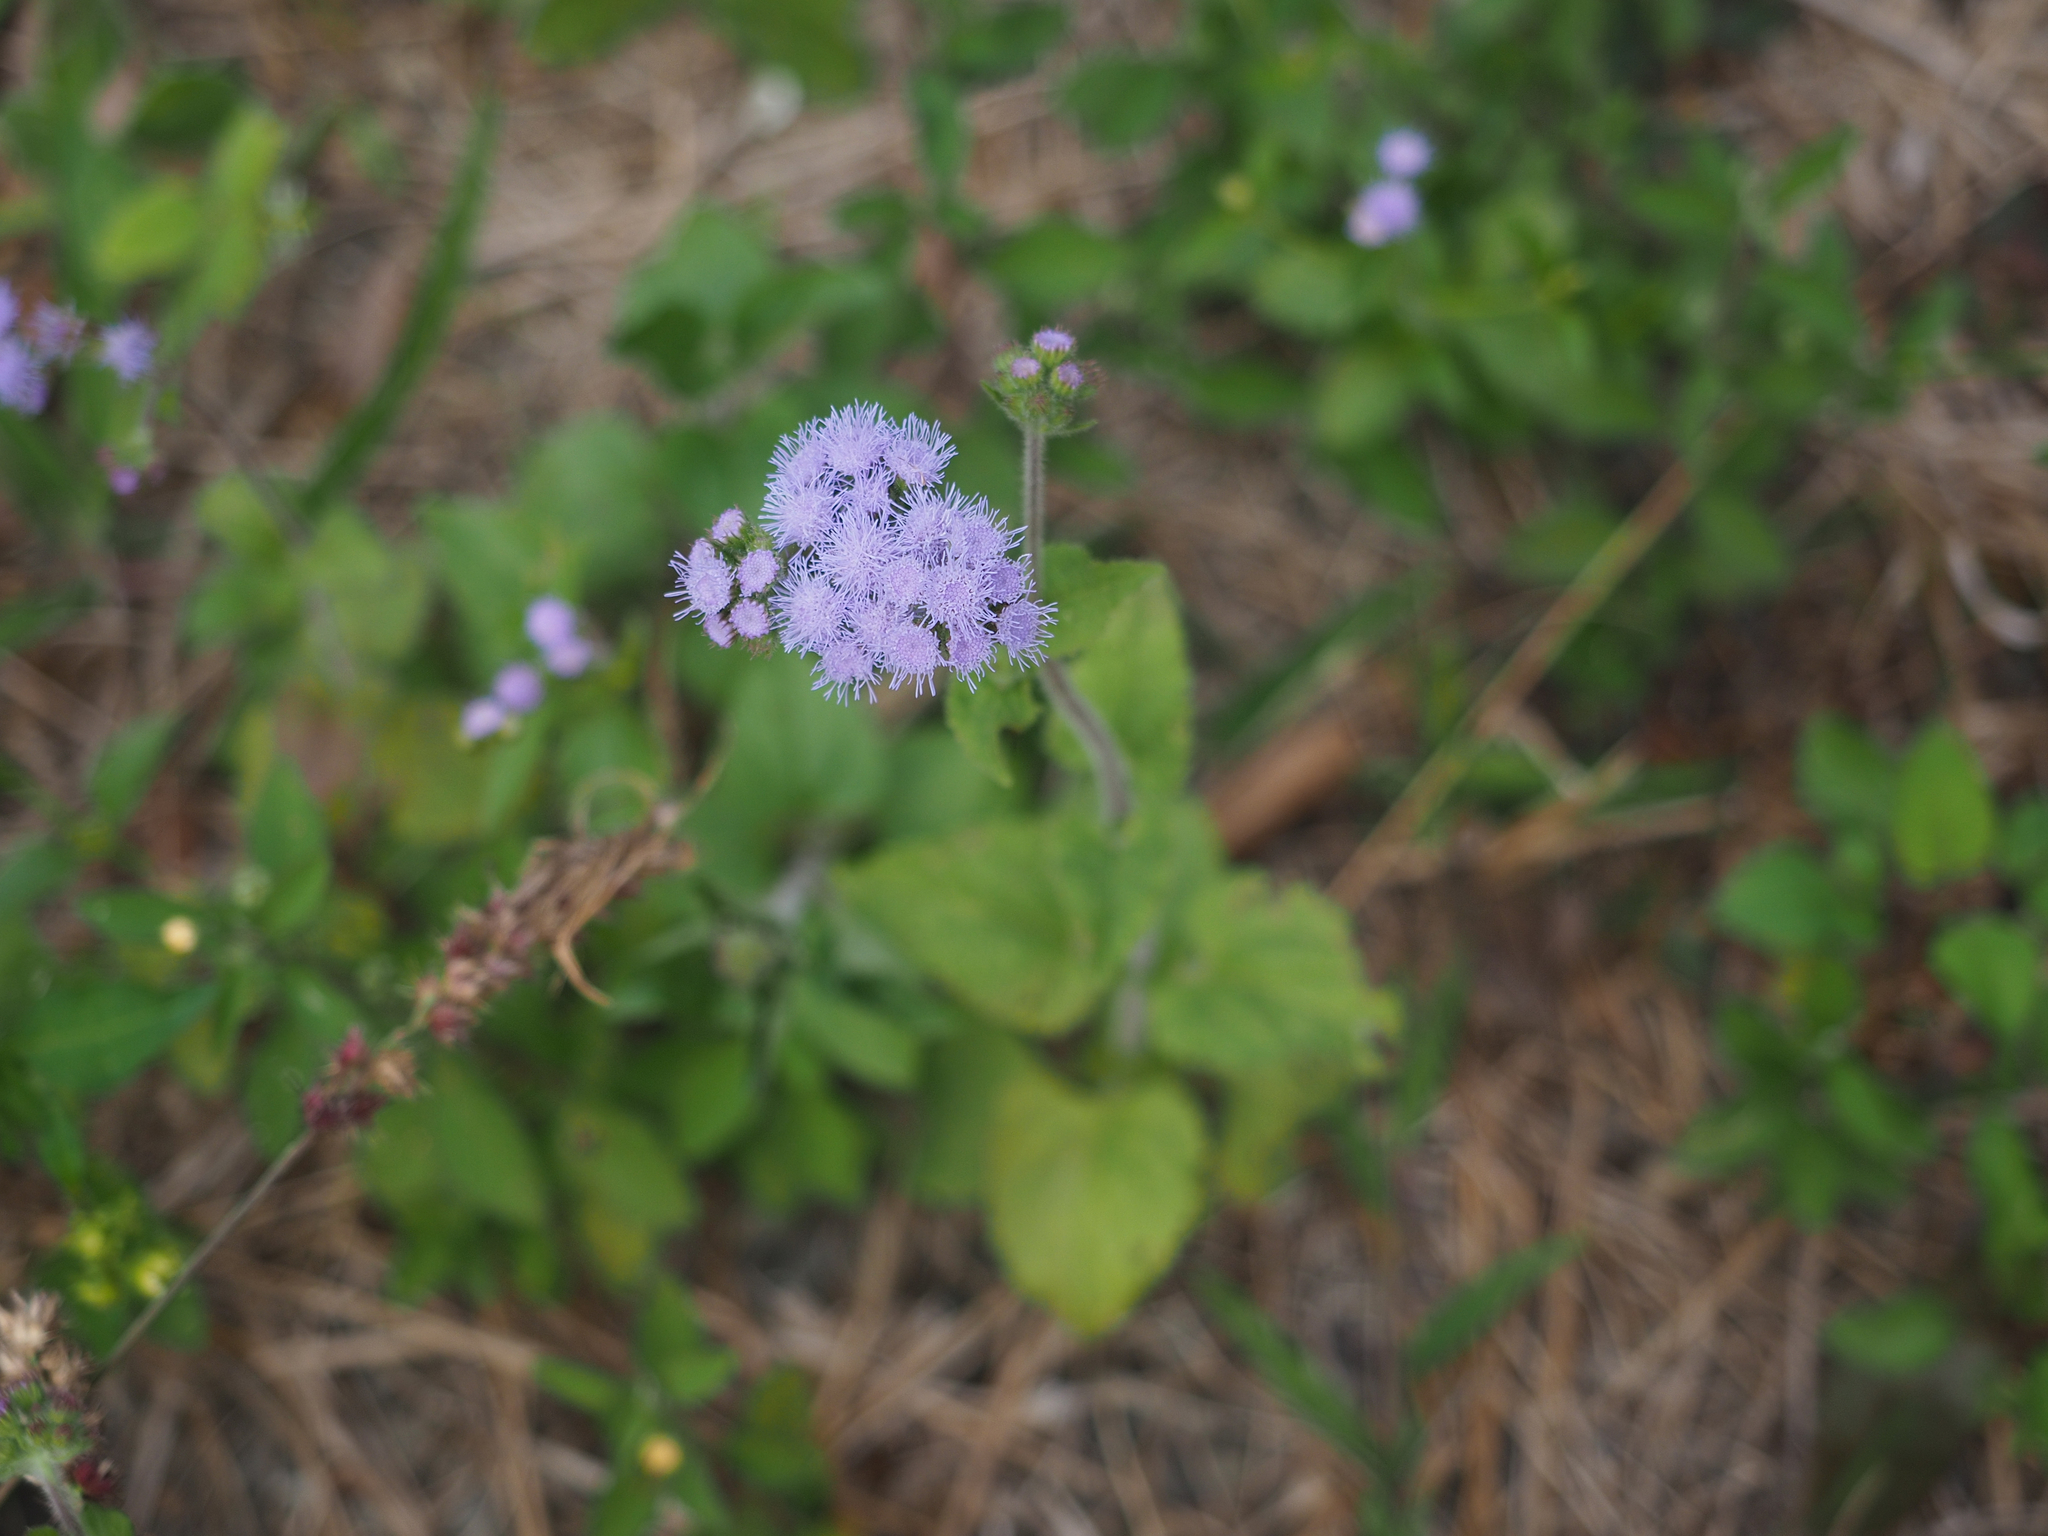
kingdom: Plantae
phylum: Tracheophyta
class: Magnoliopsida
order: Asterales
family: Asteraceae
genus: Ageratum
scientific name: Ageratum houstonianum
